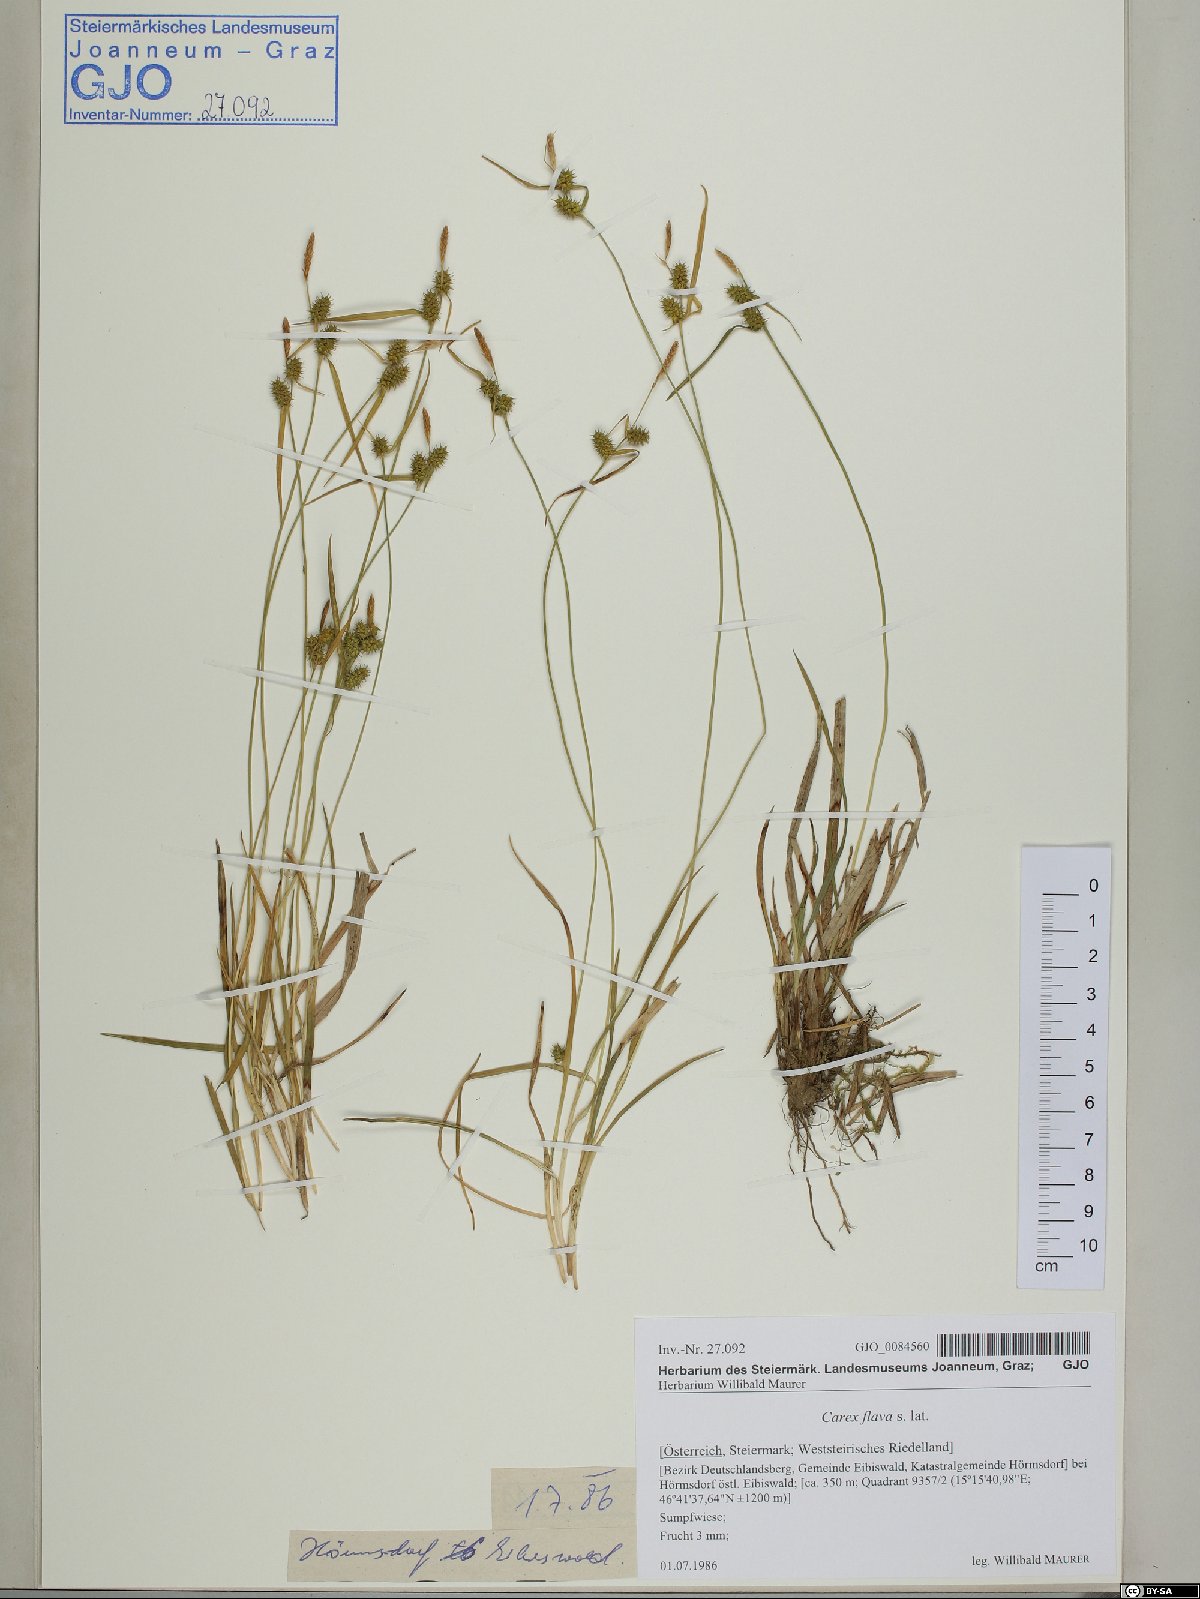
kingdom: Plantae
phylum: Tracheophyta
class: Liliopsida
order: Poales
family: Cyperaceae
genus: Carex
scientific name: Carex flava
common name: Large yellow-sedge
